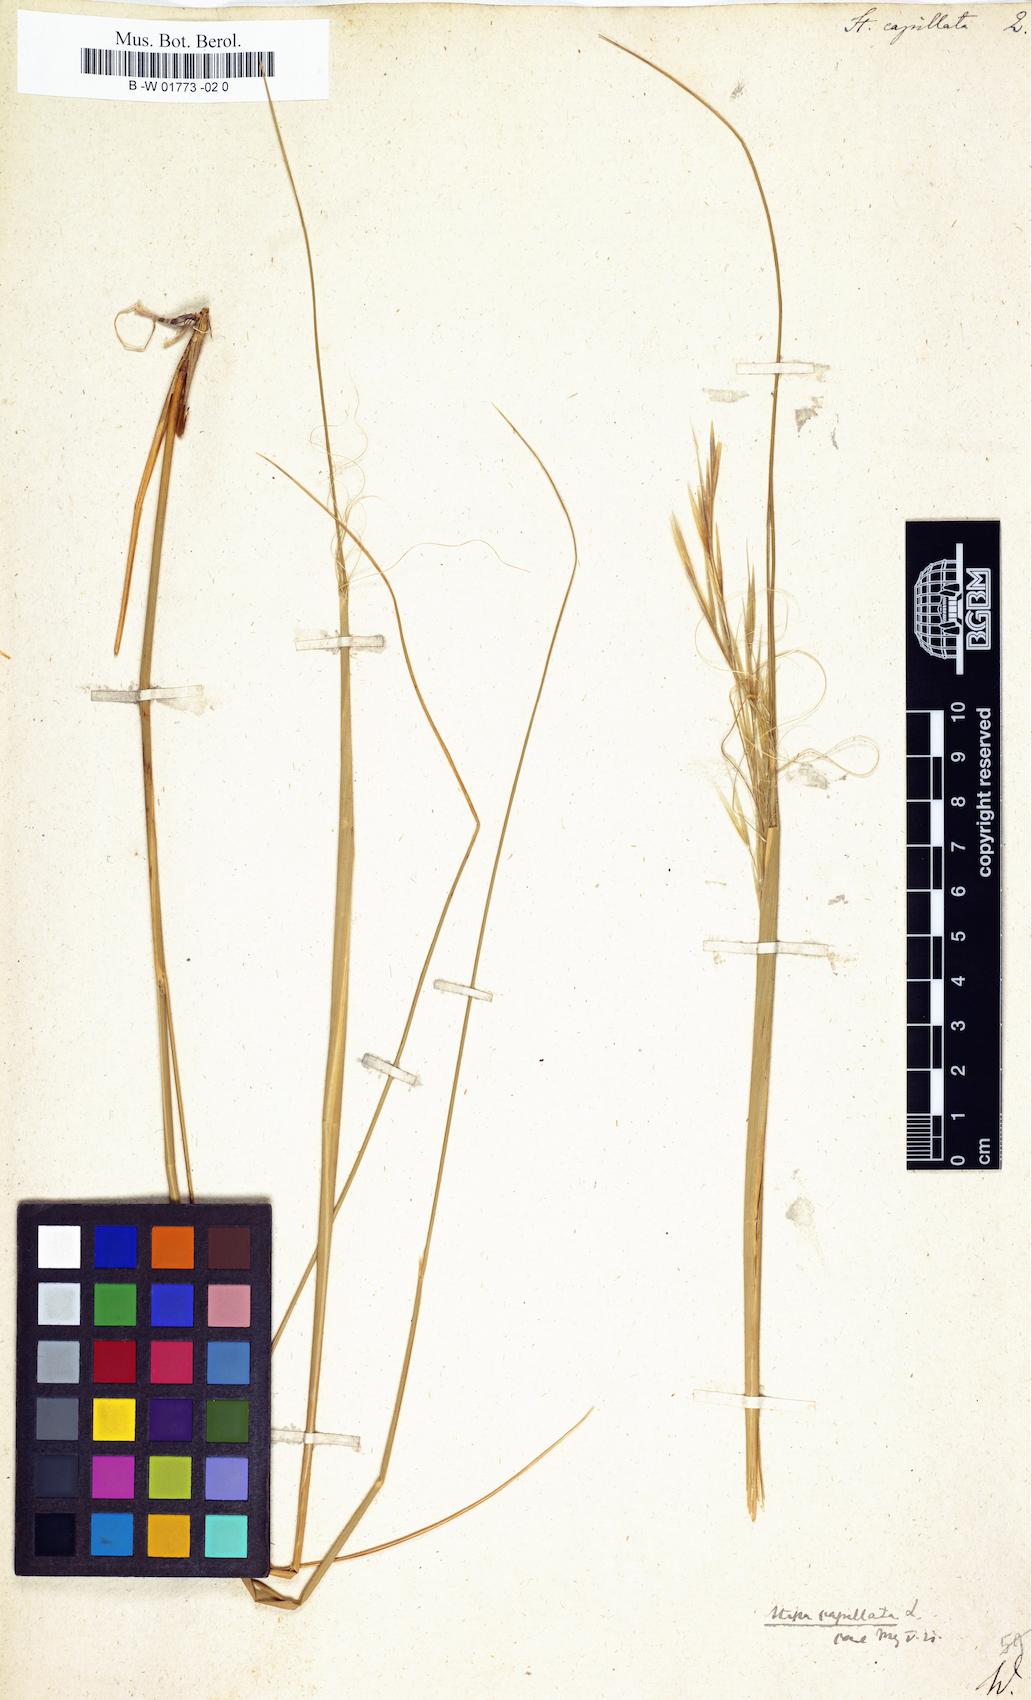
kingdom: Plantae
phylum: Tracheophyta
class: Liliopsida
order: Poales
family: Poaceae
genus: Stipa
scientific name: Stipa capillata
